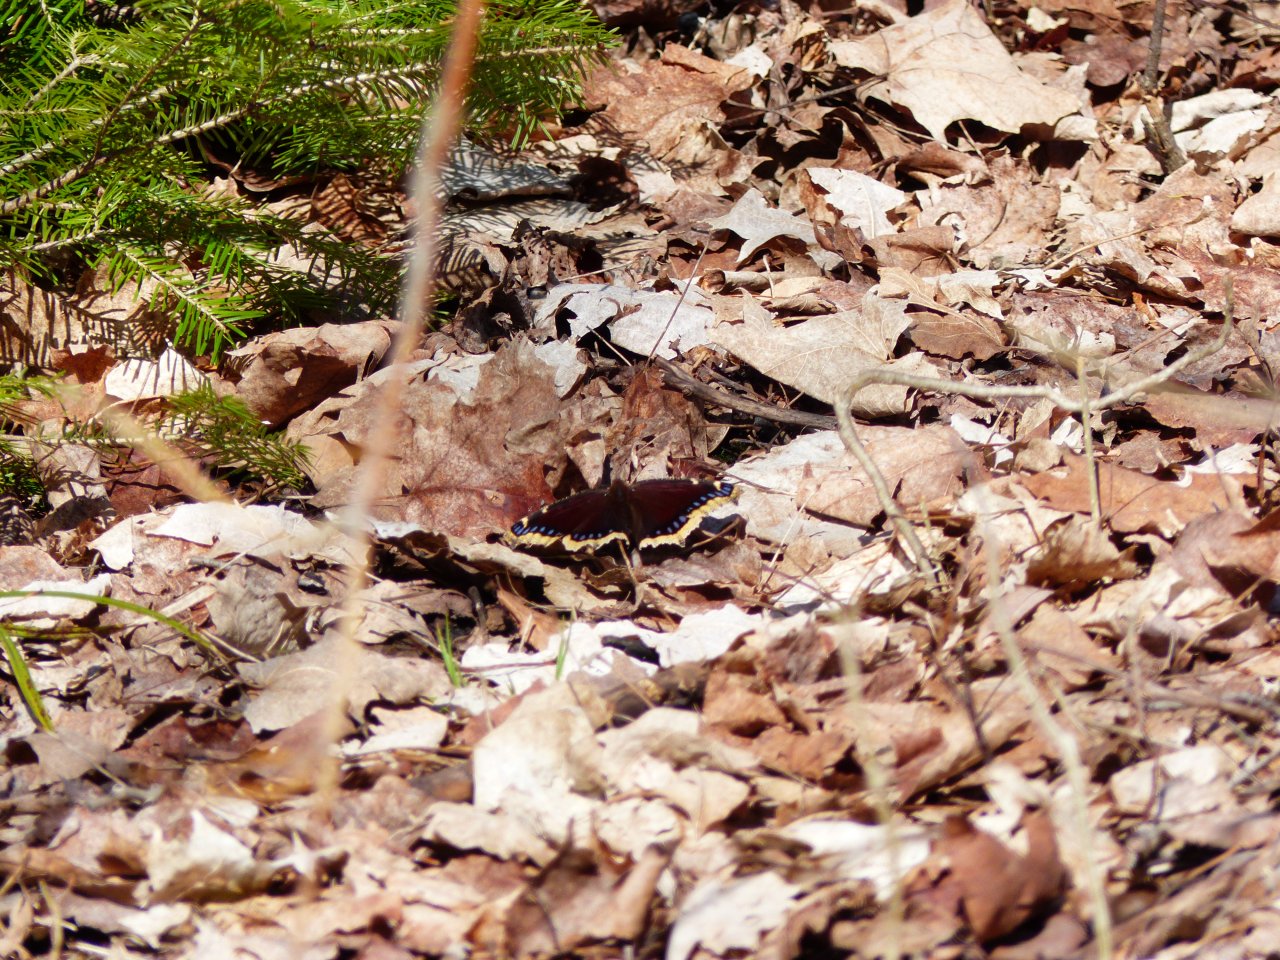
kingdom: Animalia
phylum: Arthropoda
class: Insecta
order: Lepidoptera
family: Nymphalidae
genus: Nymphalis
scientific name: Nymphalis antiopa
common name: Mourning Cloak
